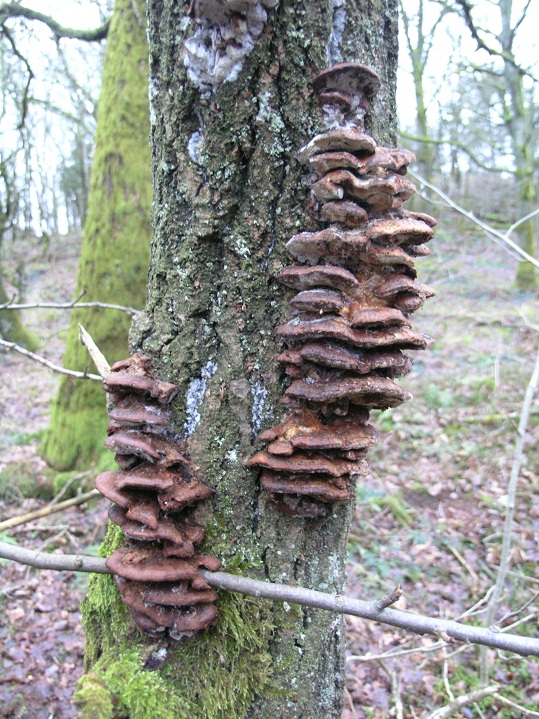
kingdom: Fungi
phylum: Basidiomycota
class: Agaricomycetes
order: Hymenochaetales
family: Hymenochaetaceae
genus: Inocutis
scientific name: Inocutis rheades
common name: ræve-spejlporesvamp
